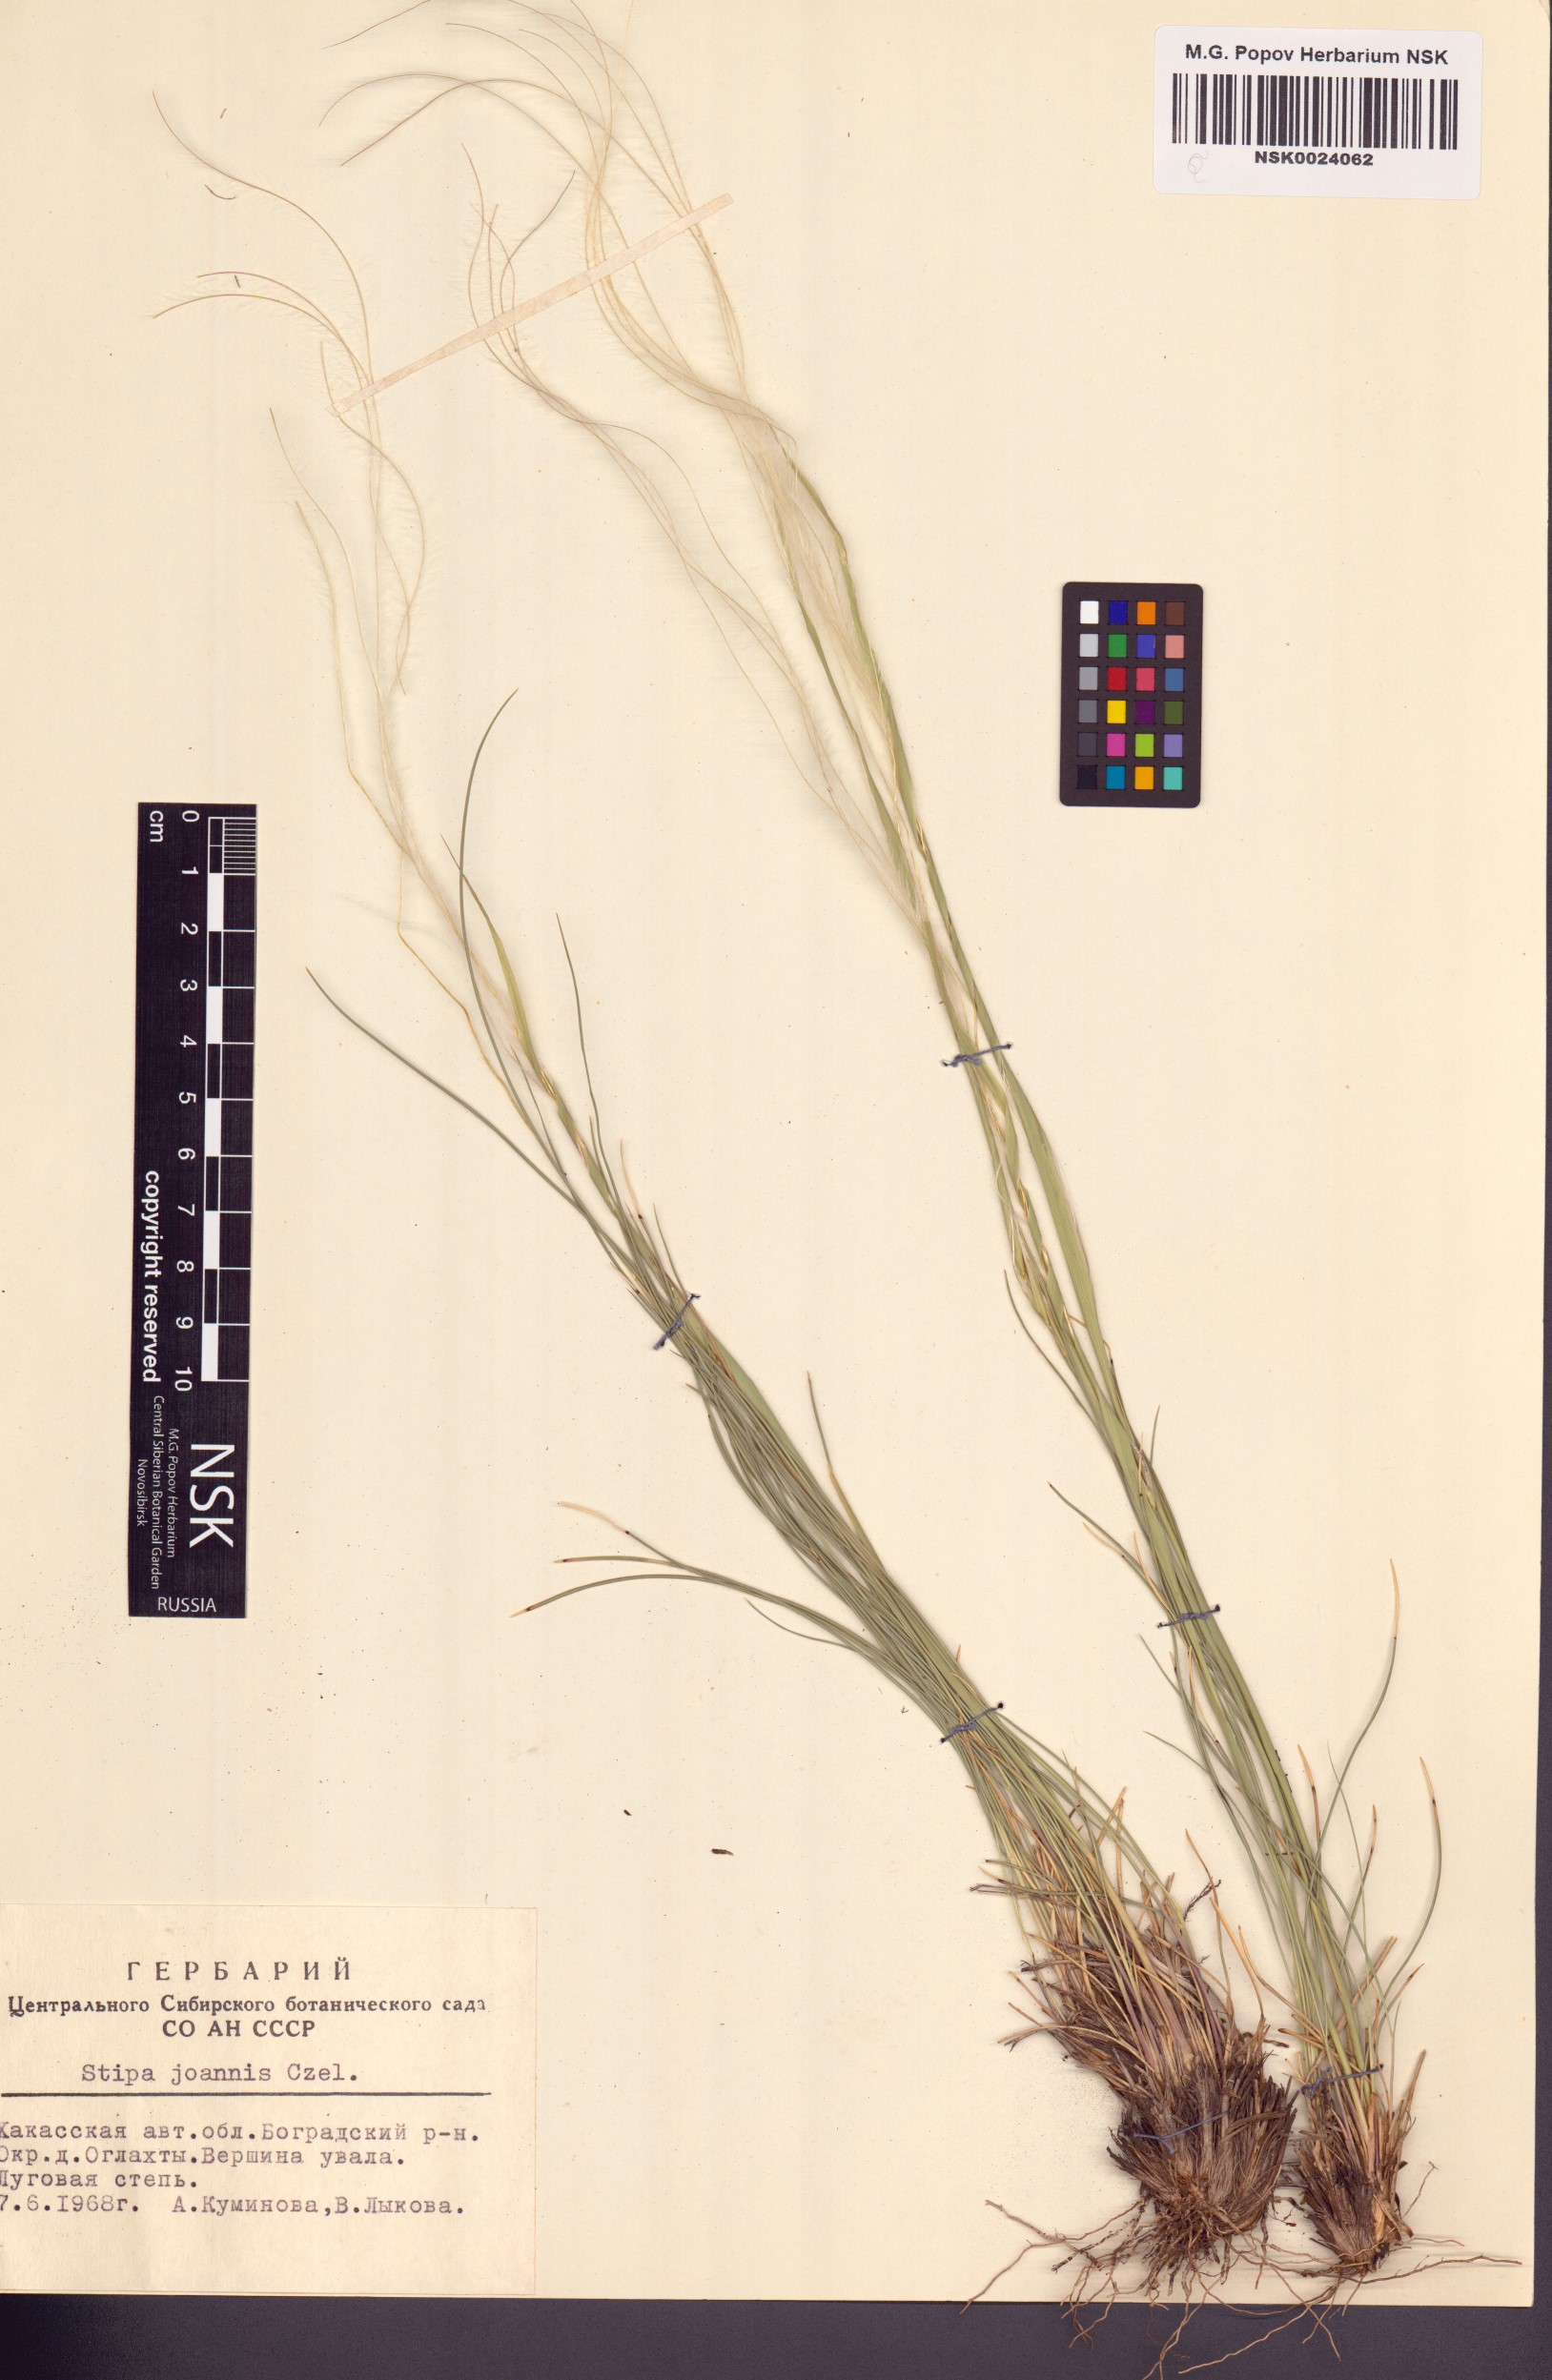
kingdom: Plantae
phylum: Tracheophyta
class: Liliopsida
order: Poales
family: Poaceae
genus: Stipa
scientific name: Stipa pennata
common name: European feather grass
